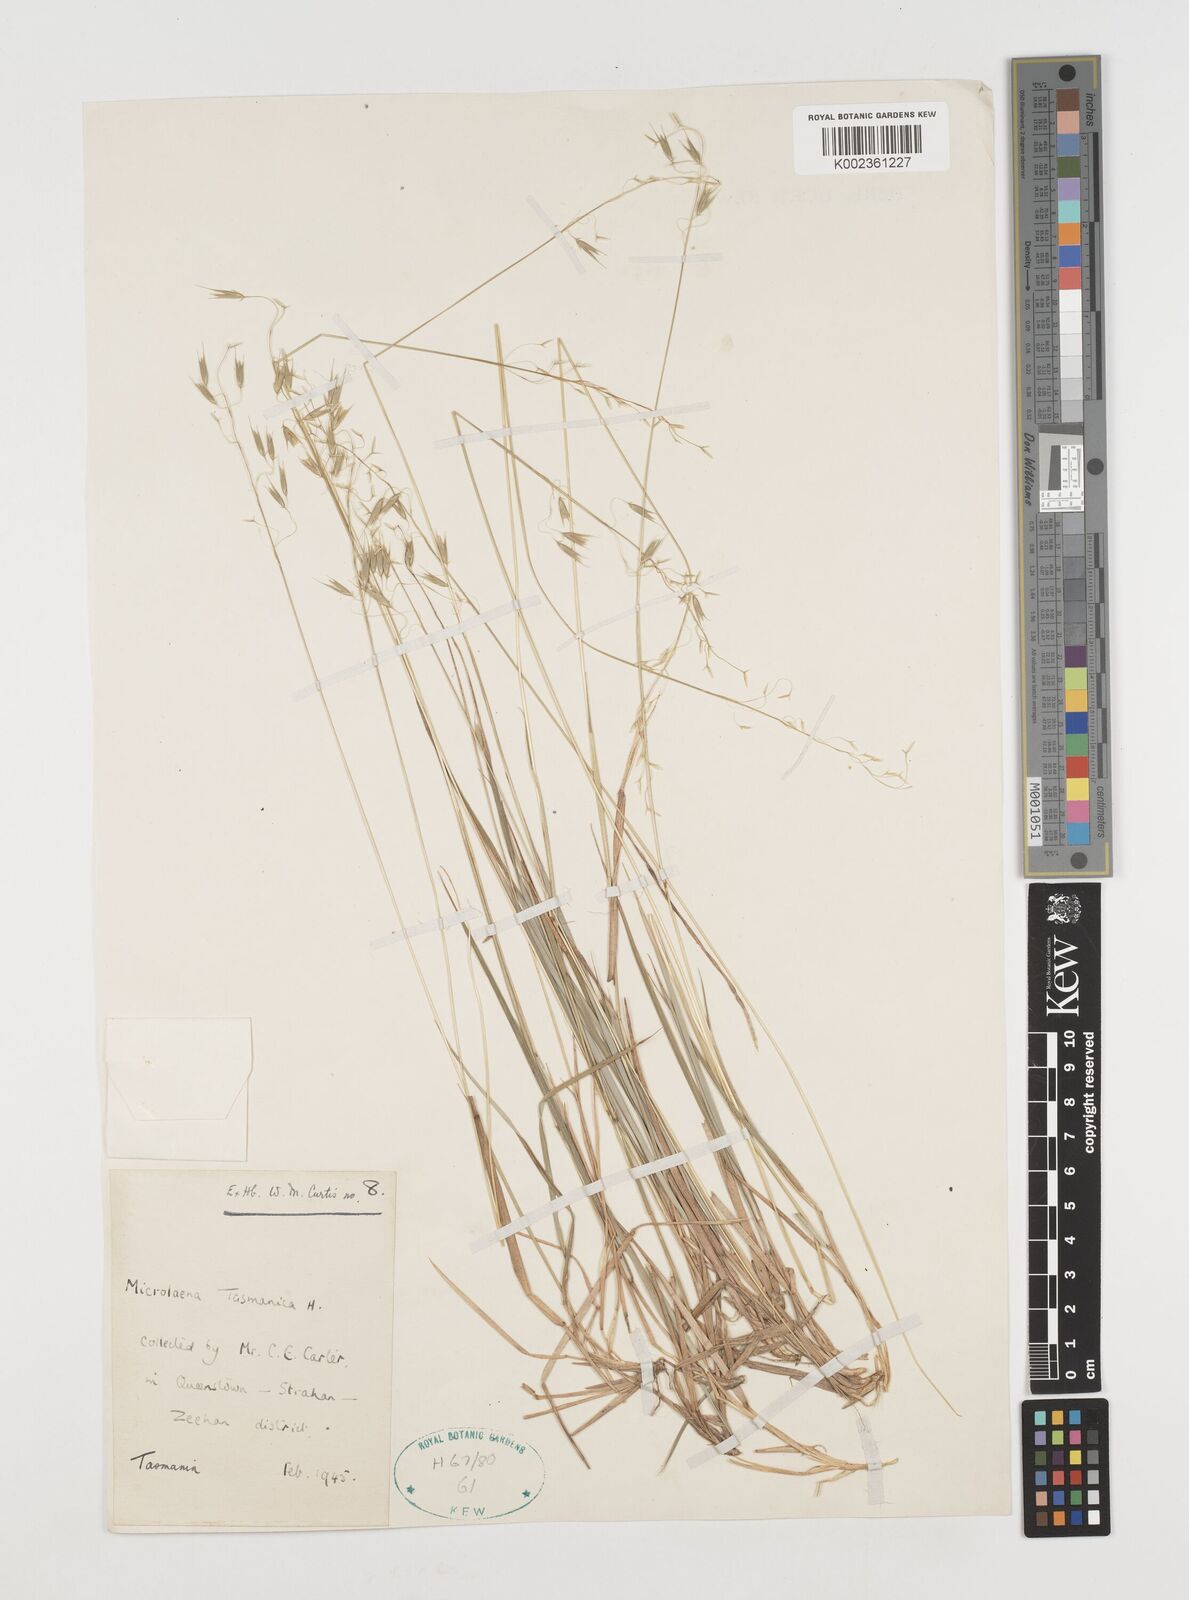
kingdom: Plantae
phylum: Tracheophyta
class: Liliopsida
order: Poales
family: Poaceae
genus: Microlaena
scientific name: Microlaena tasmanica
